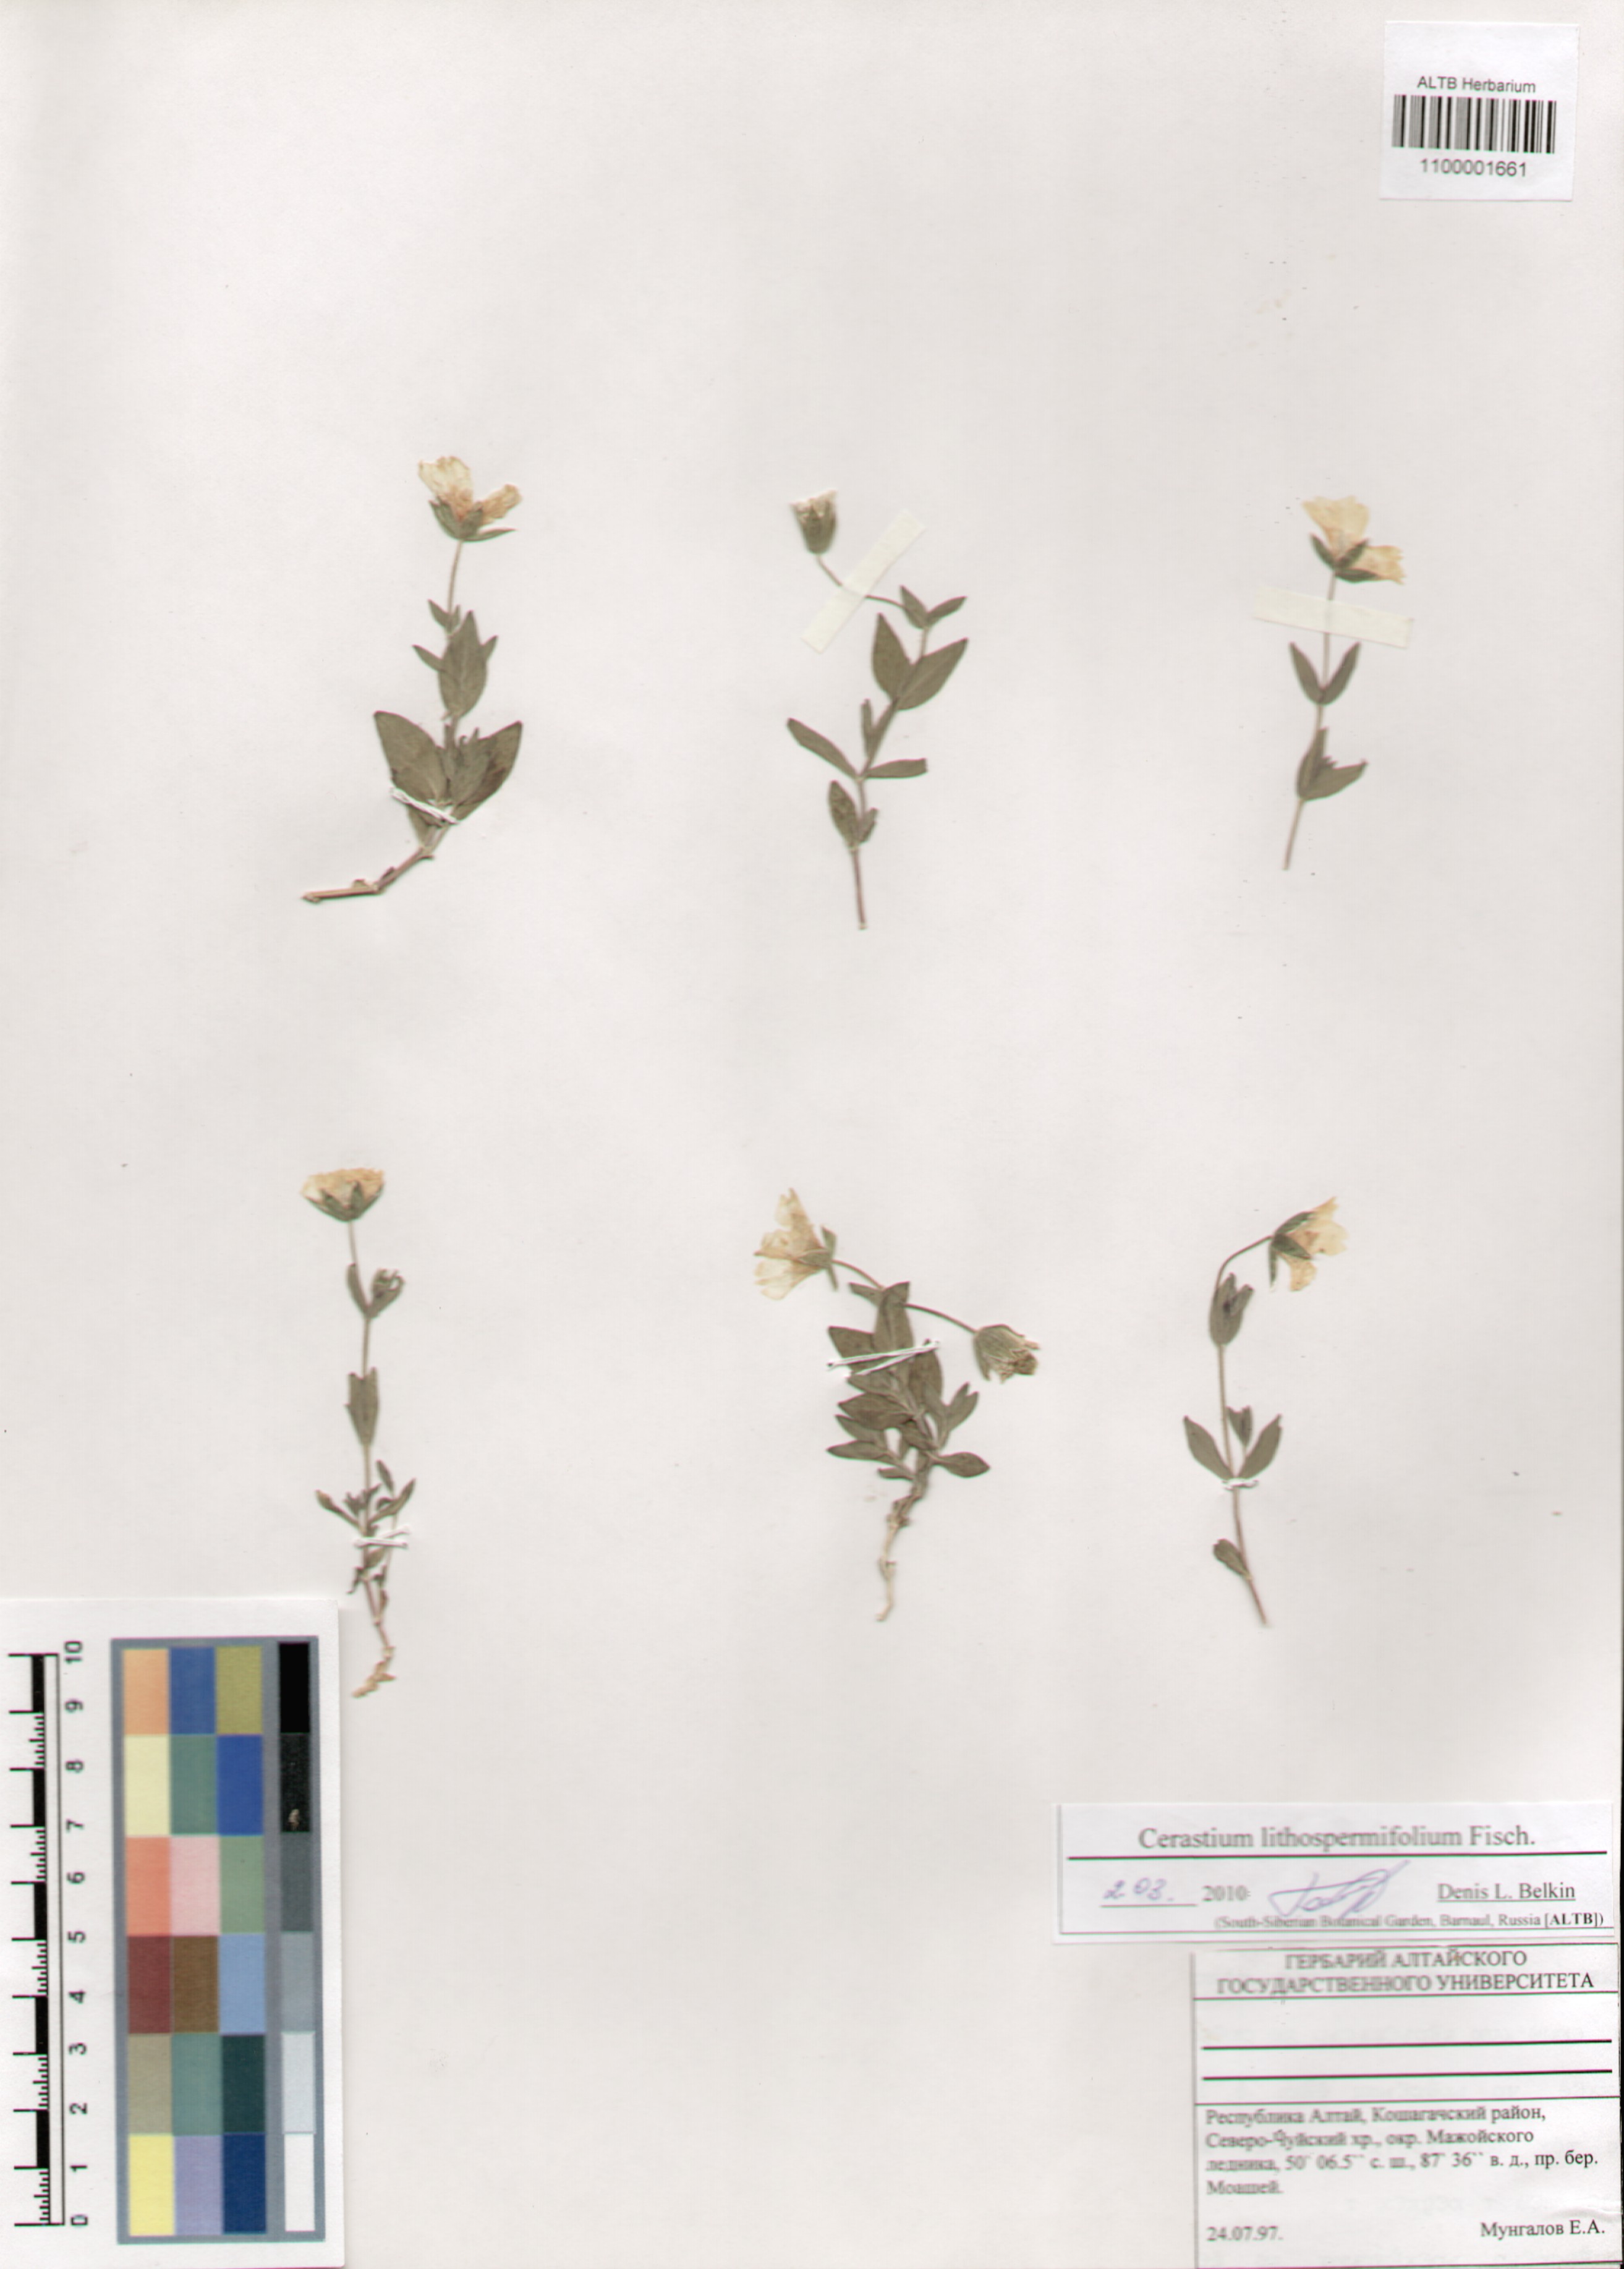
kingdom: Plantae
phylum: Tracheophyta
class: Magnoliopsida
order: Caryophyllales
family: Caryophyllaceae
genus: Cerastium
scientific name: Cerastium lithospermifolium
